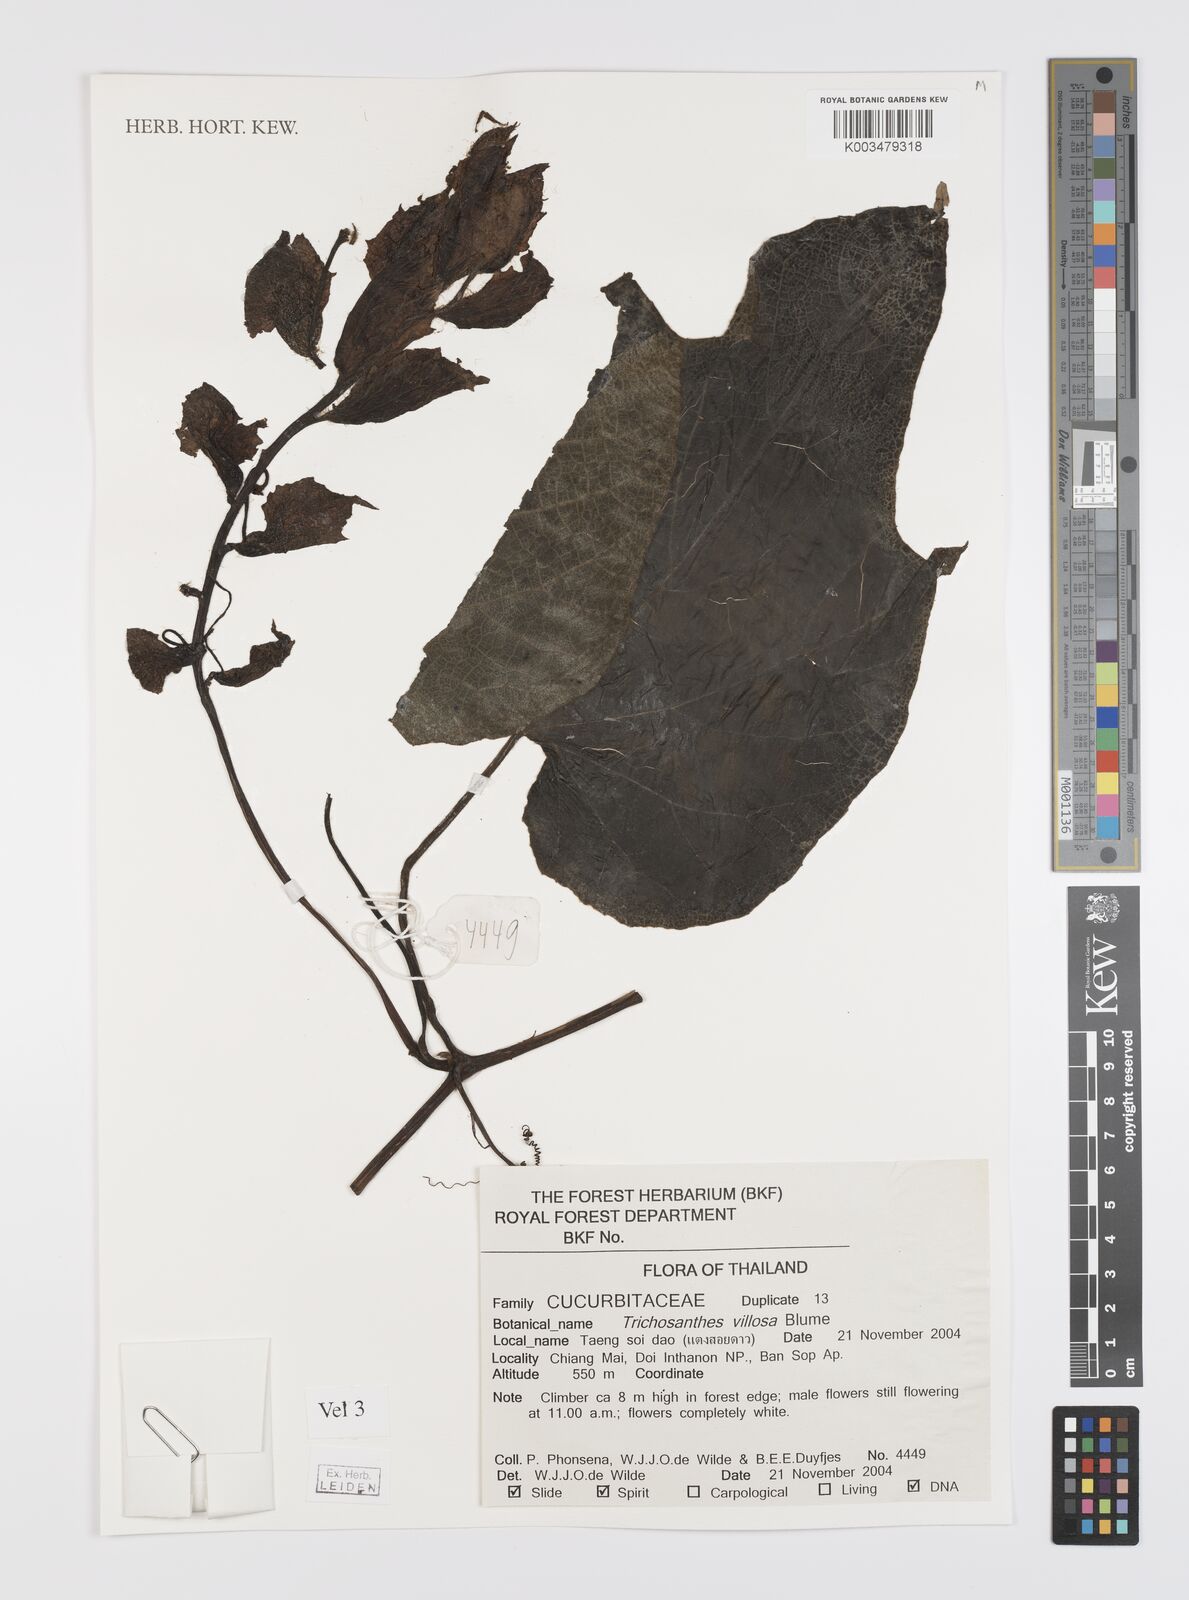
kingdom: Plantae
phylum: Tracheophyta
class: Magnoliopsida
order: Cucurbitales
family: Cucurbitaceae
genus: Trichosanthes
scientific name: Trichosanthes villosa
